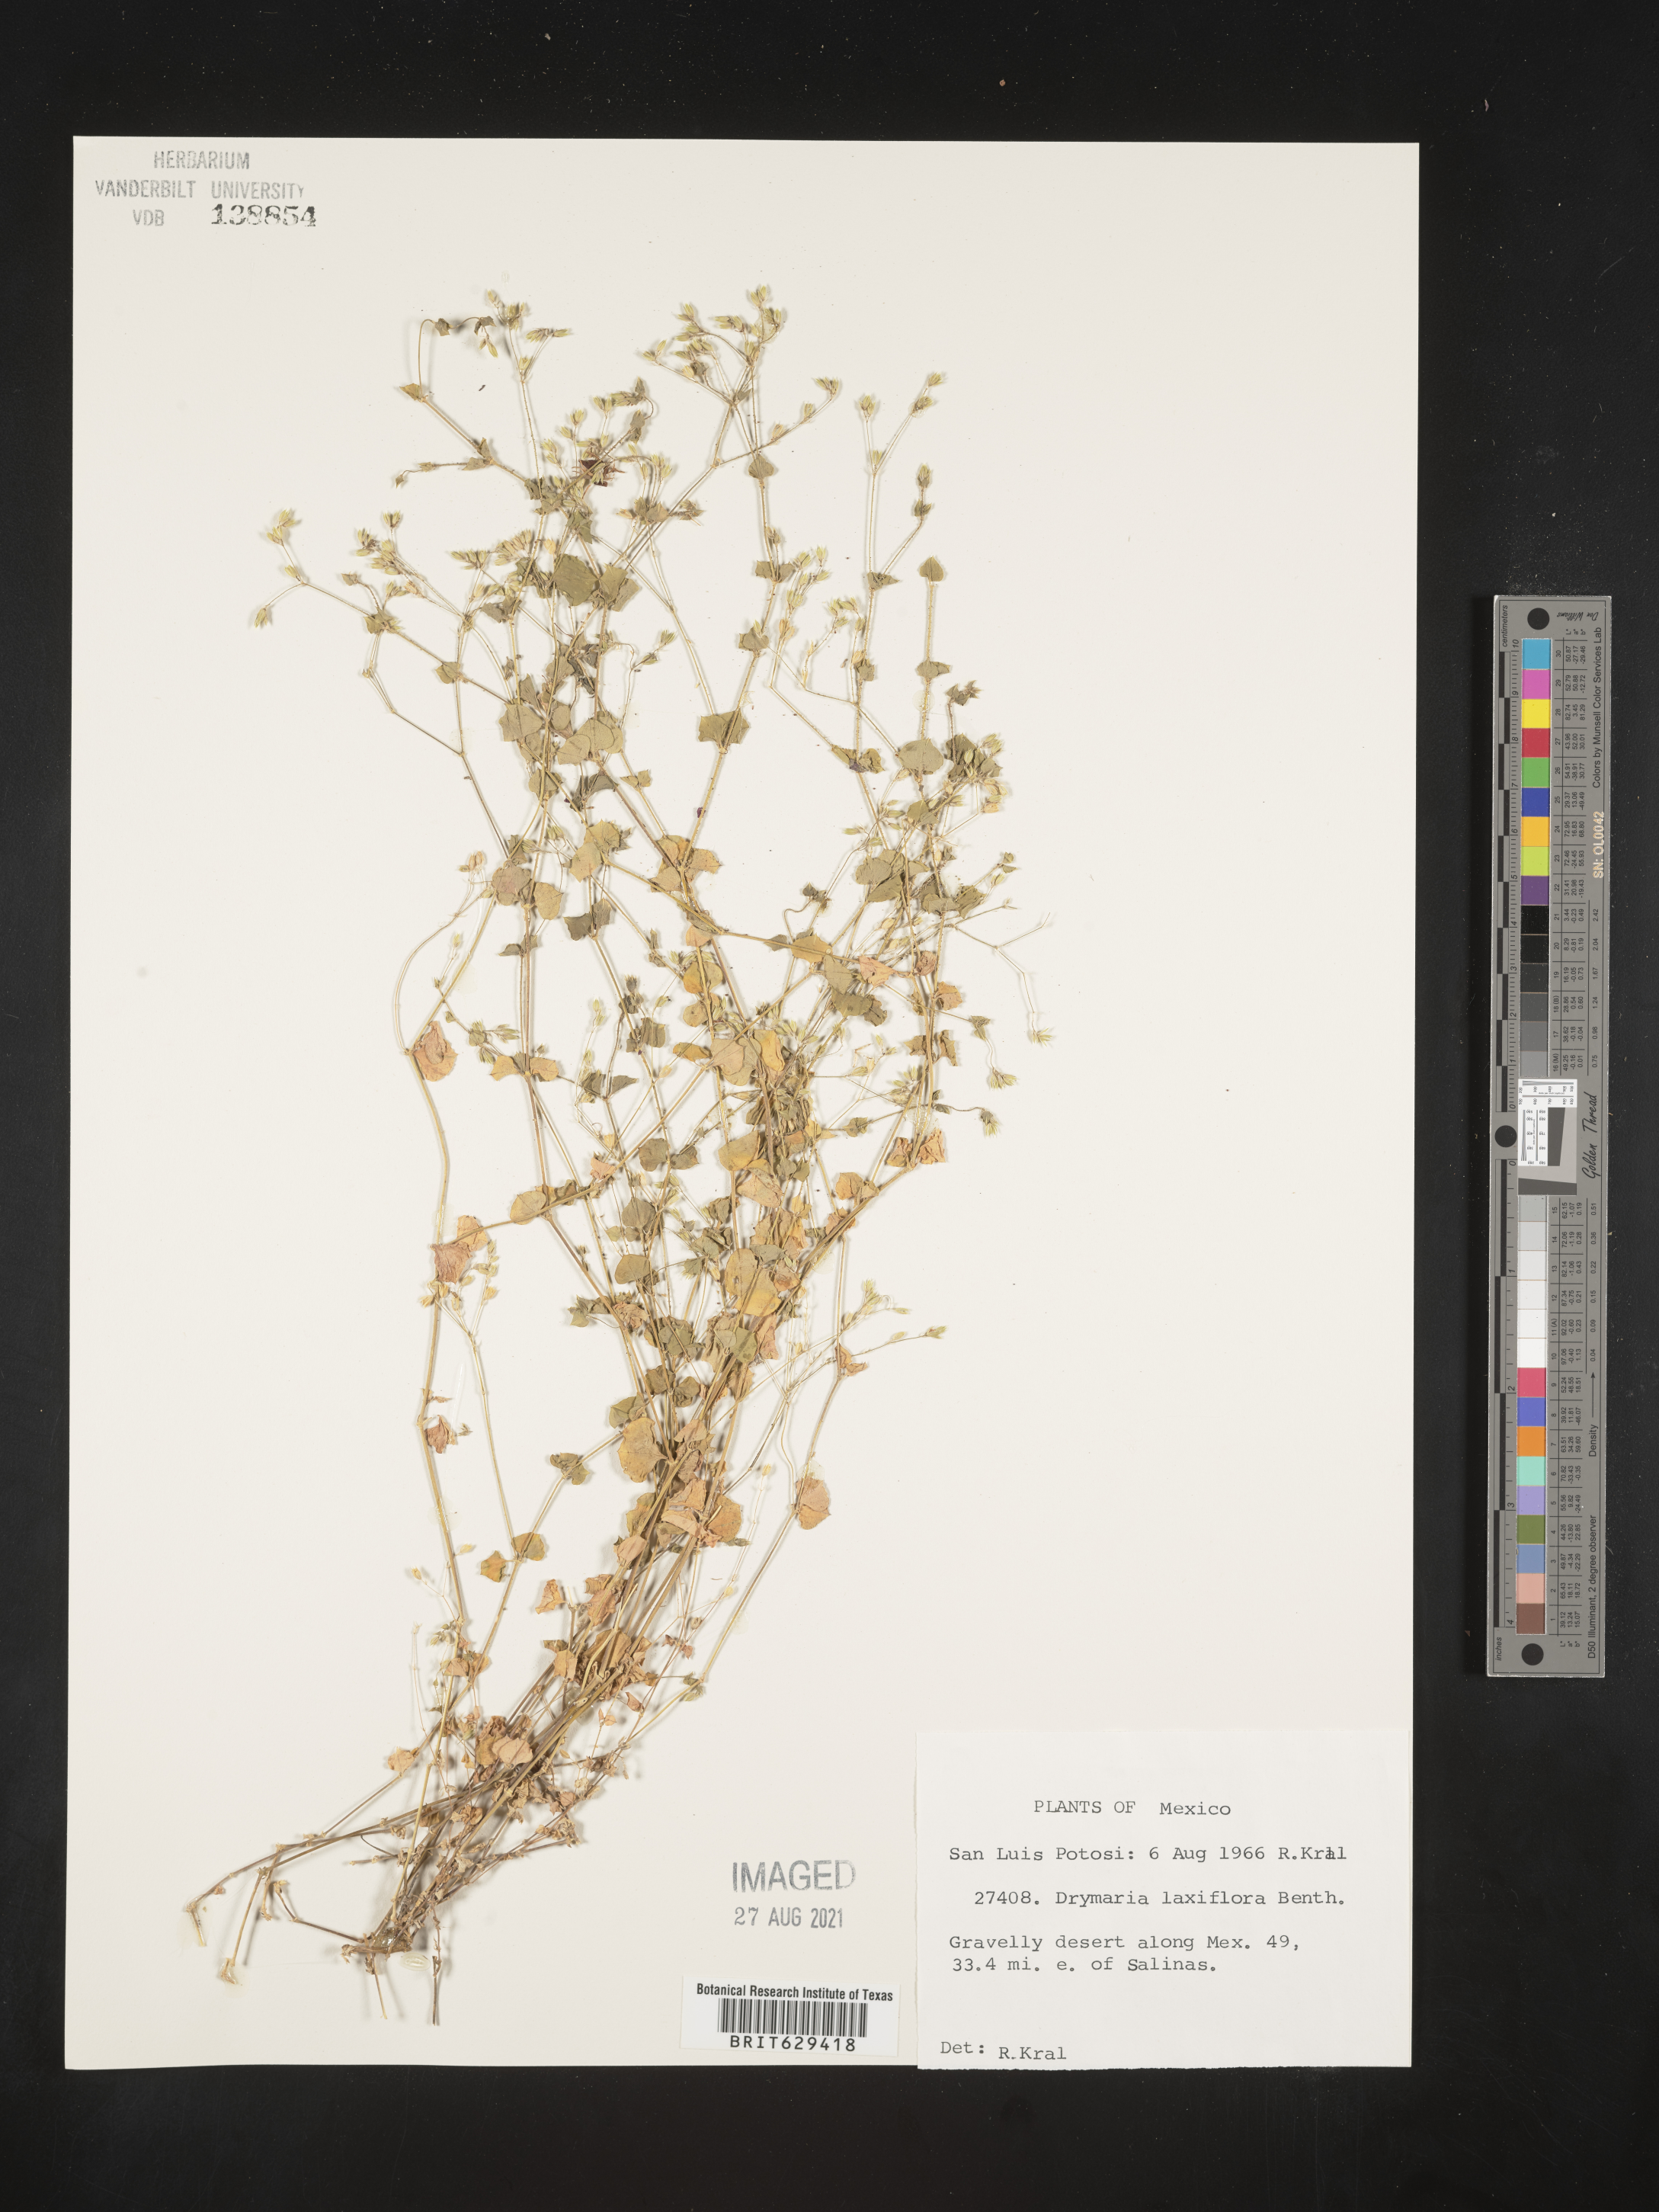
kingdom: Plantae
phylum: Tracheophyta
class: Magnoliopsida
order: Caryophyllales
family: Caryophyllaceae
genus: Drymaria
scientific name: Drymaria
